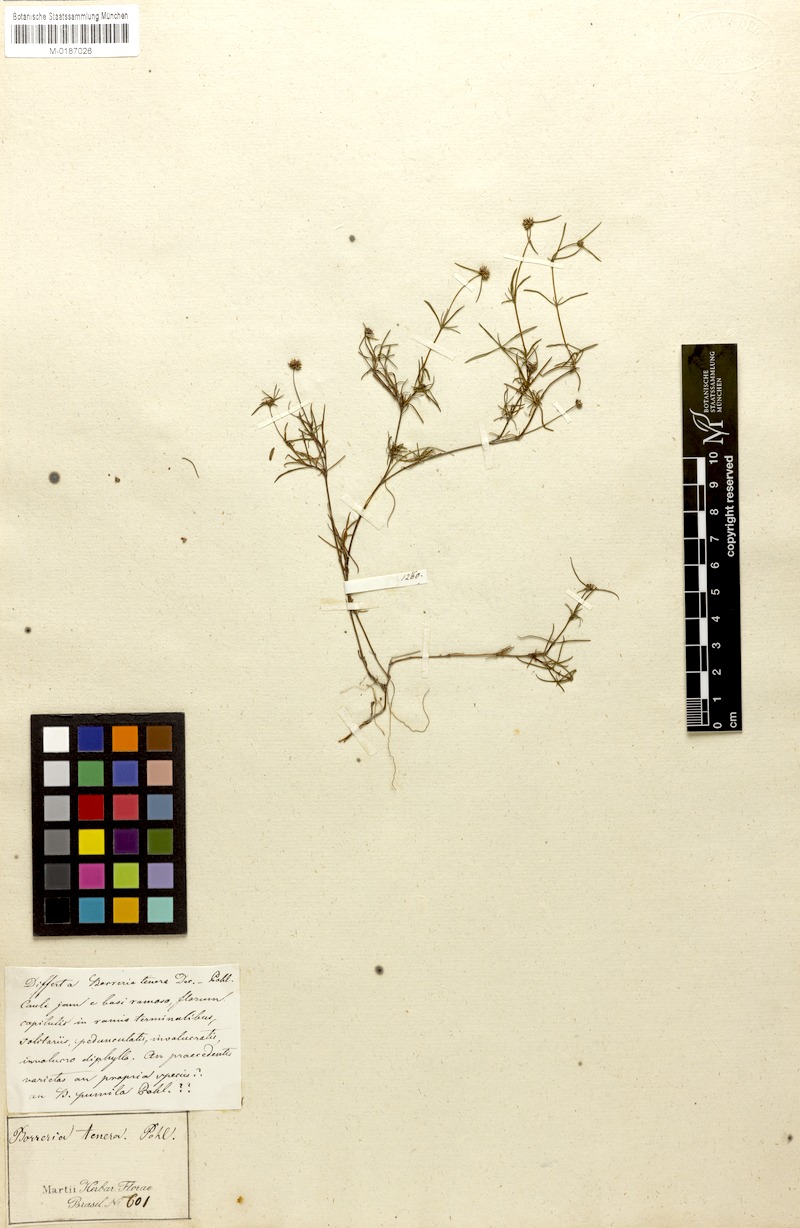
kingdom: Plantae
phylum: Tracheophyta
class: Magnoliopsida
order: Gentianales
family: Rubiaceae
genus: Spermacoce
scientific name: Spermacoce pohliana
